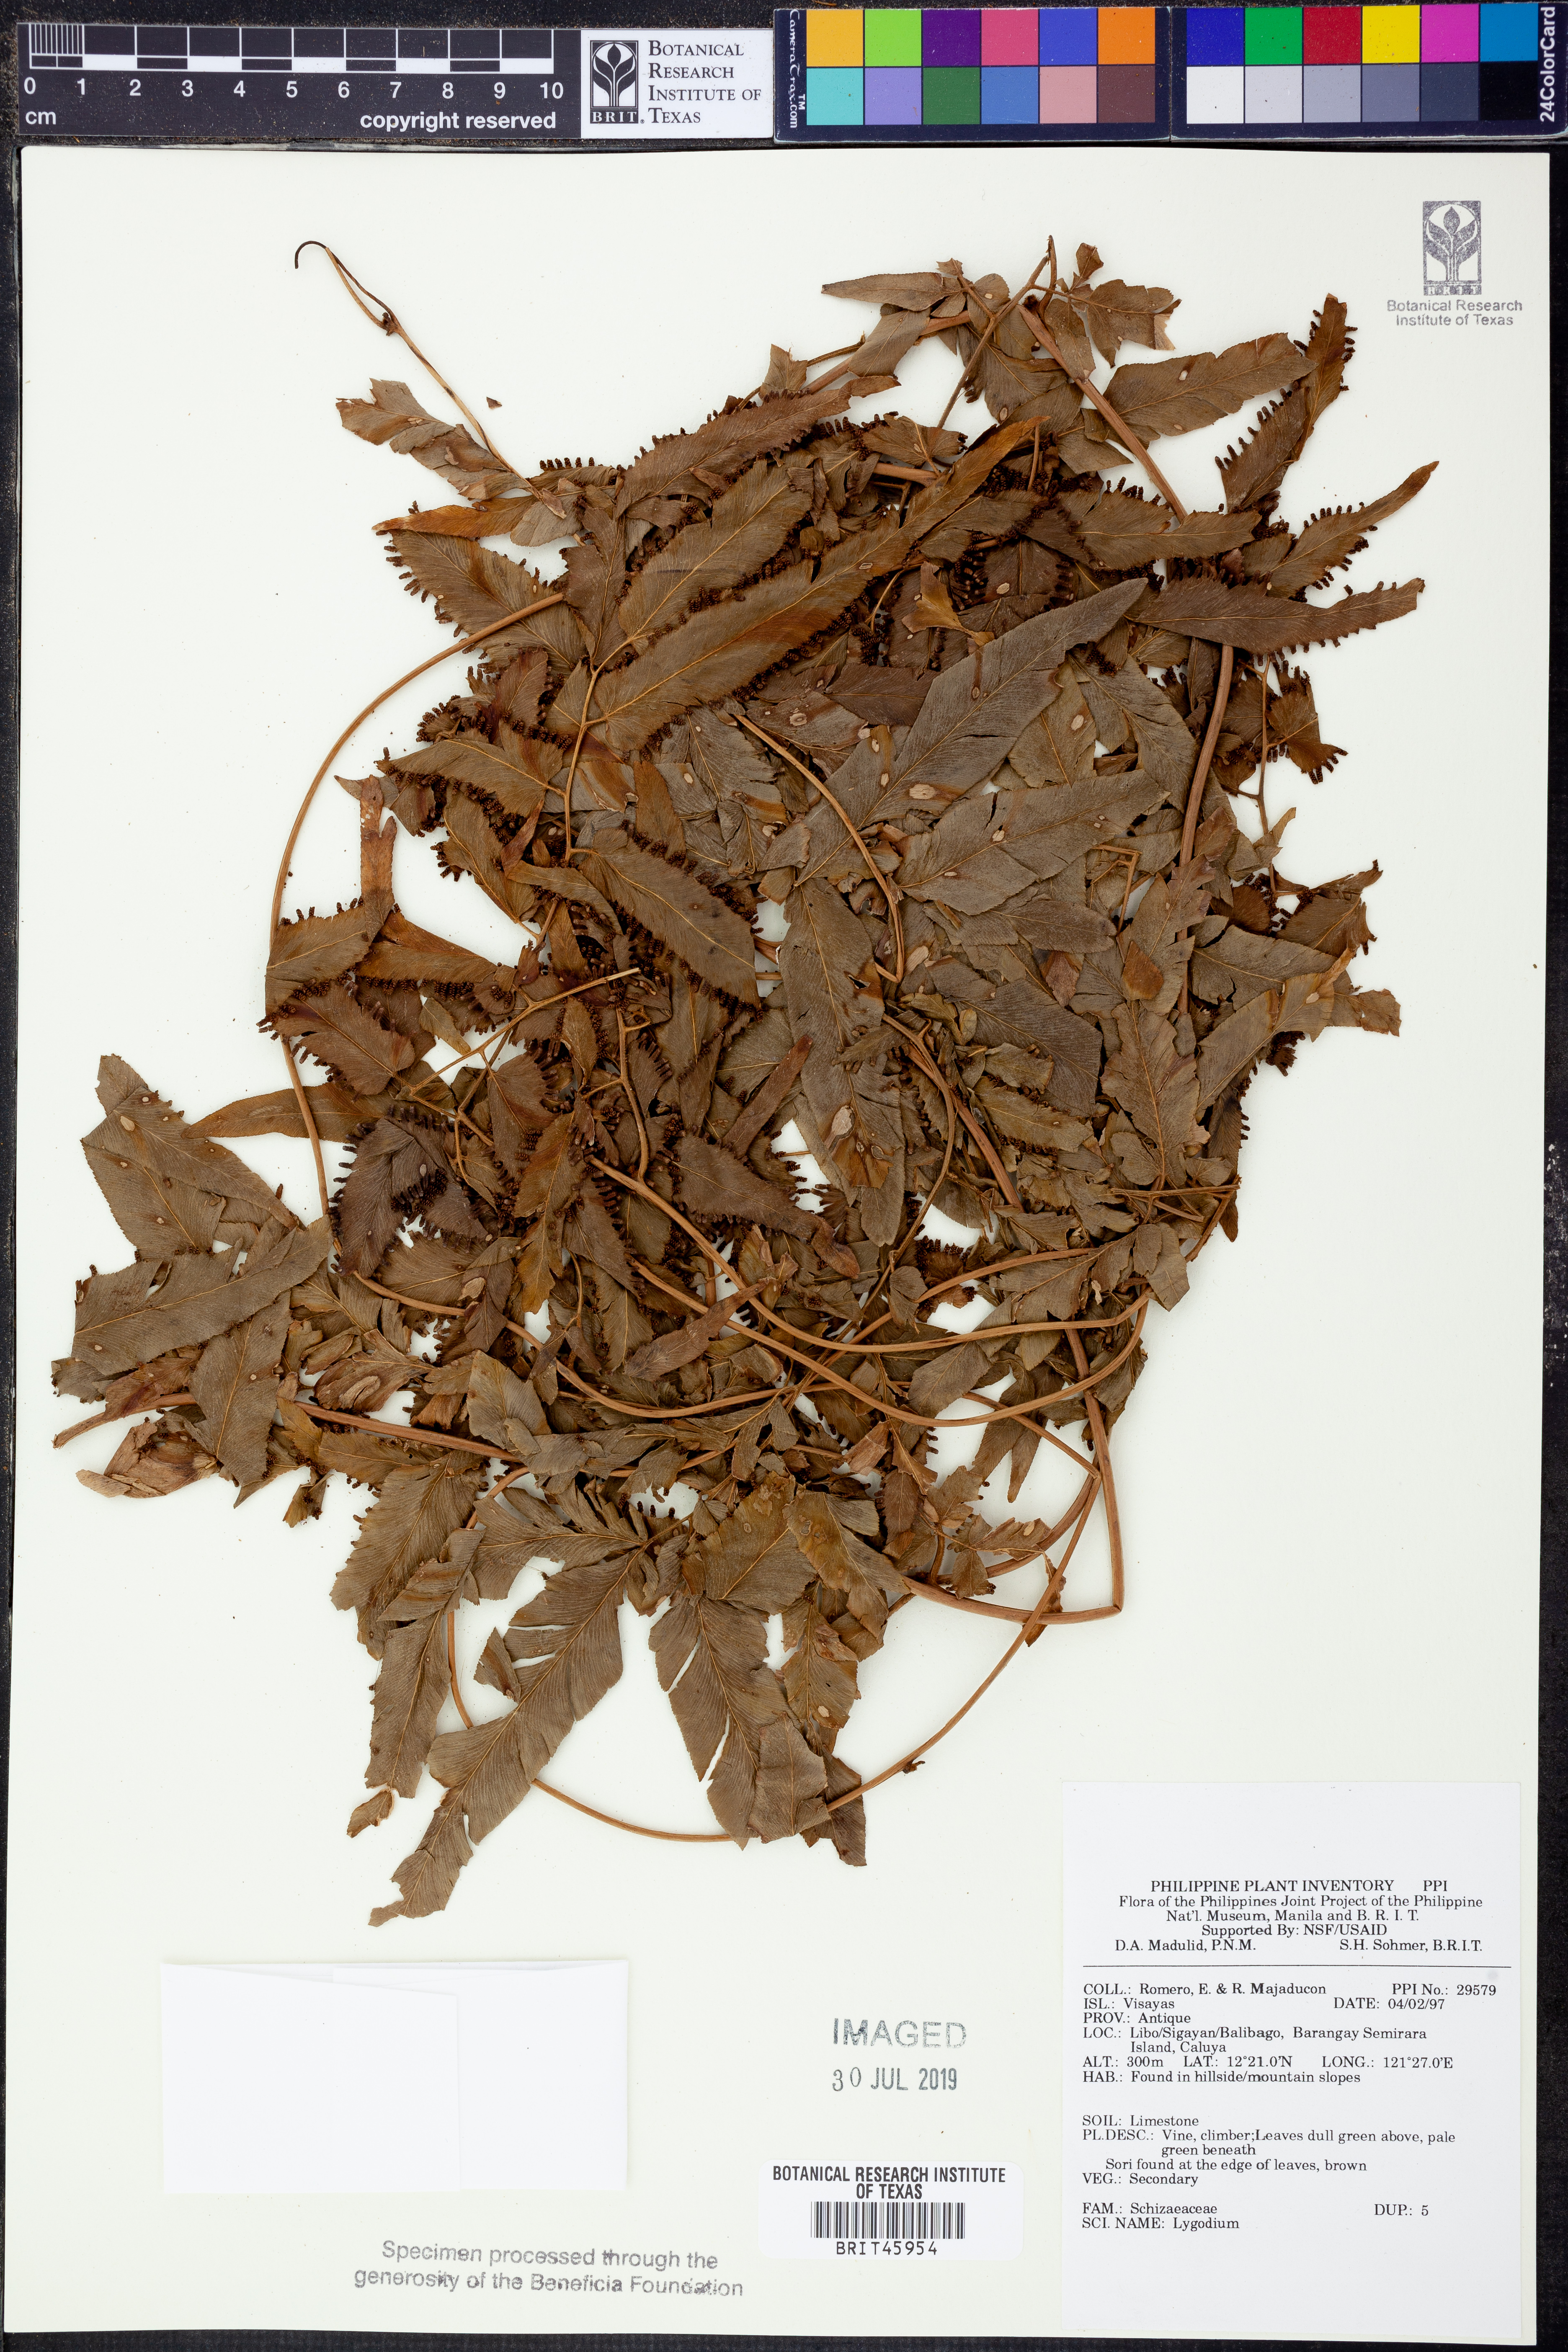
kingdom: Plantae
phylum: Tracheophyta
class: Polypodiopsida
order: Schizaeales
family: Lygodiaceae
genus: Lygodium
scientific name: Lygodium
